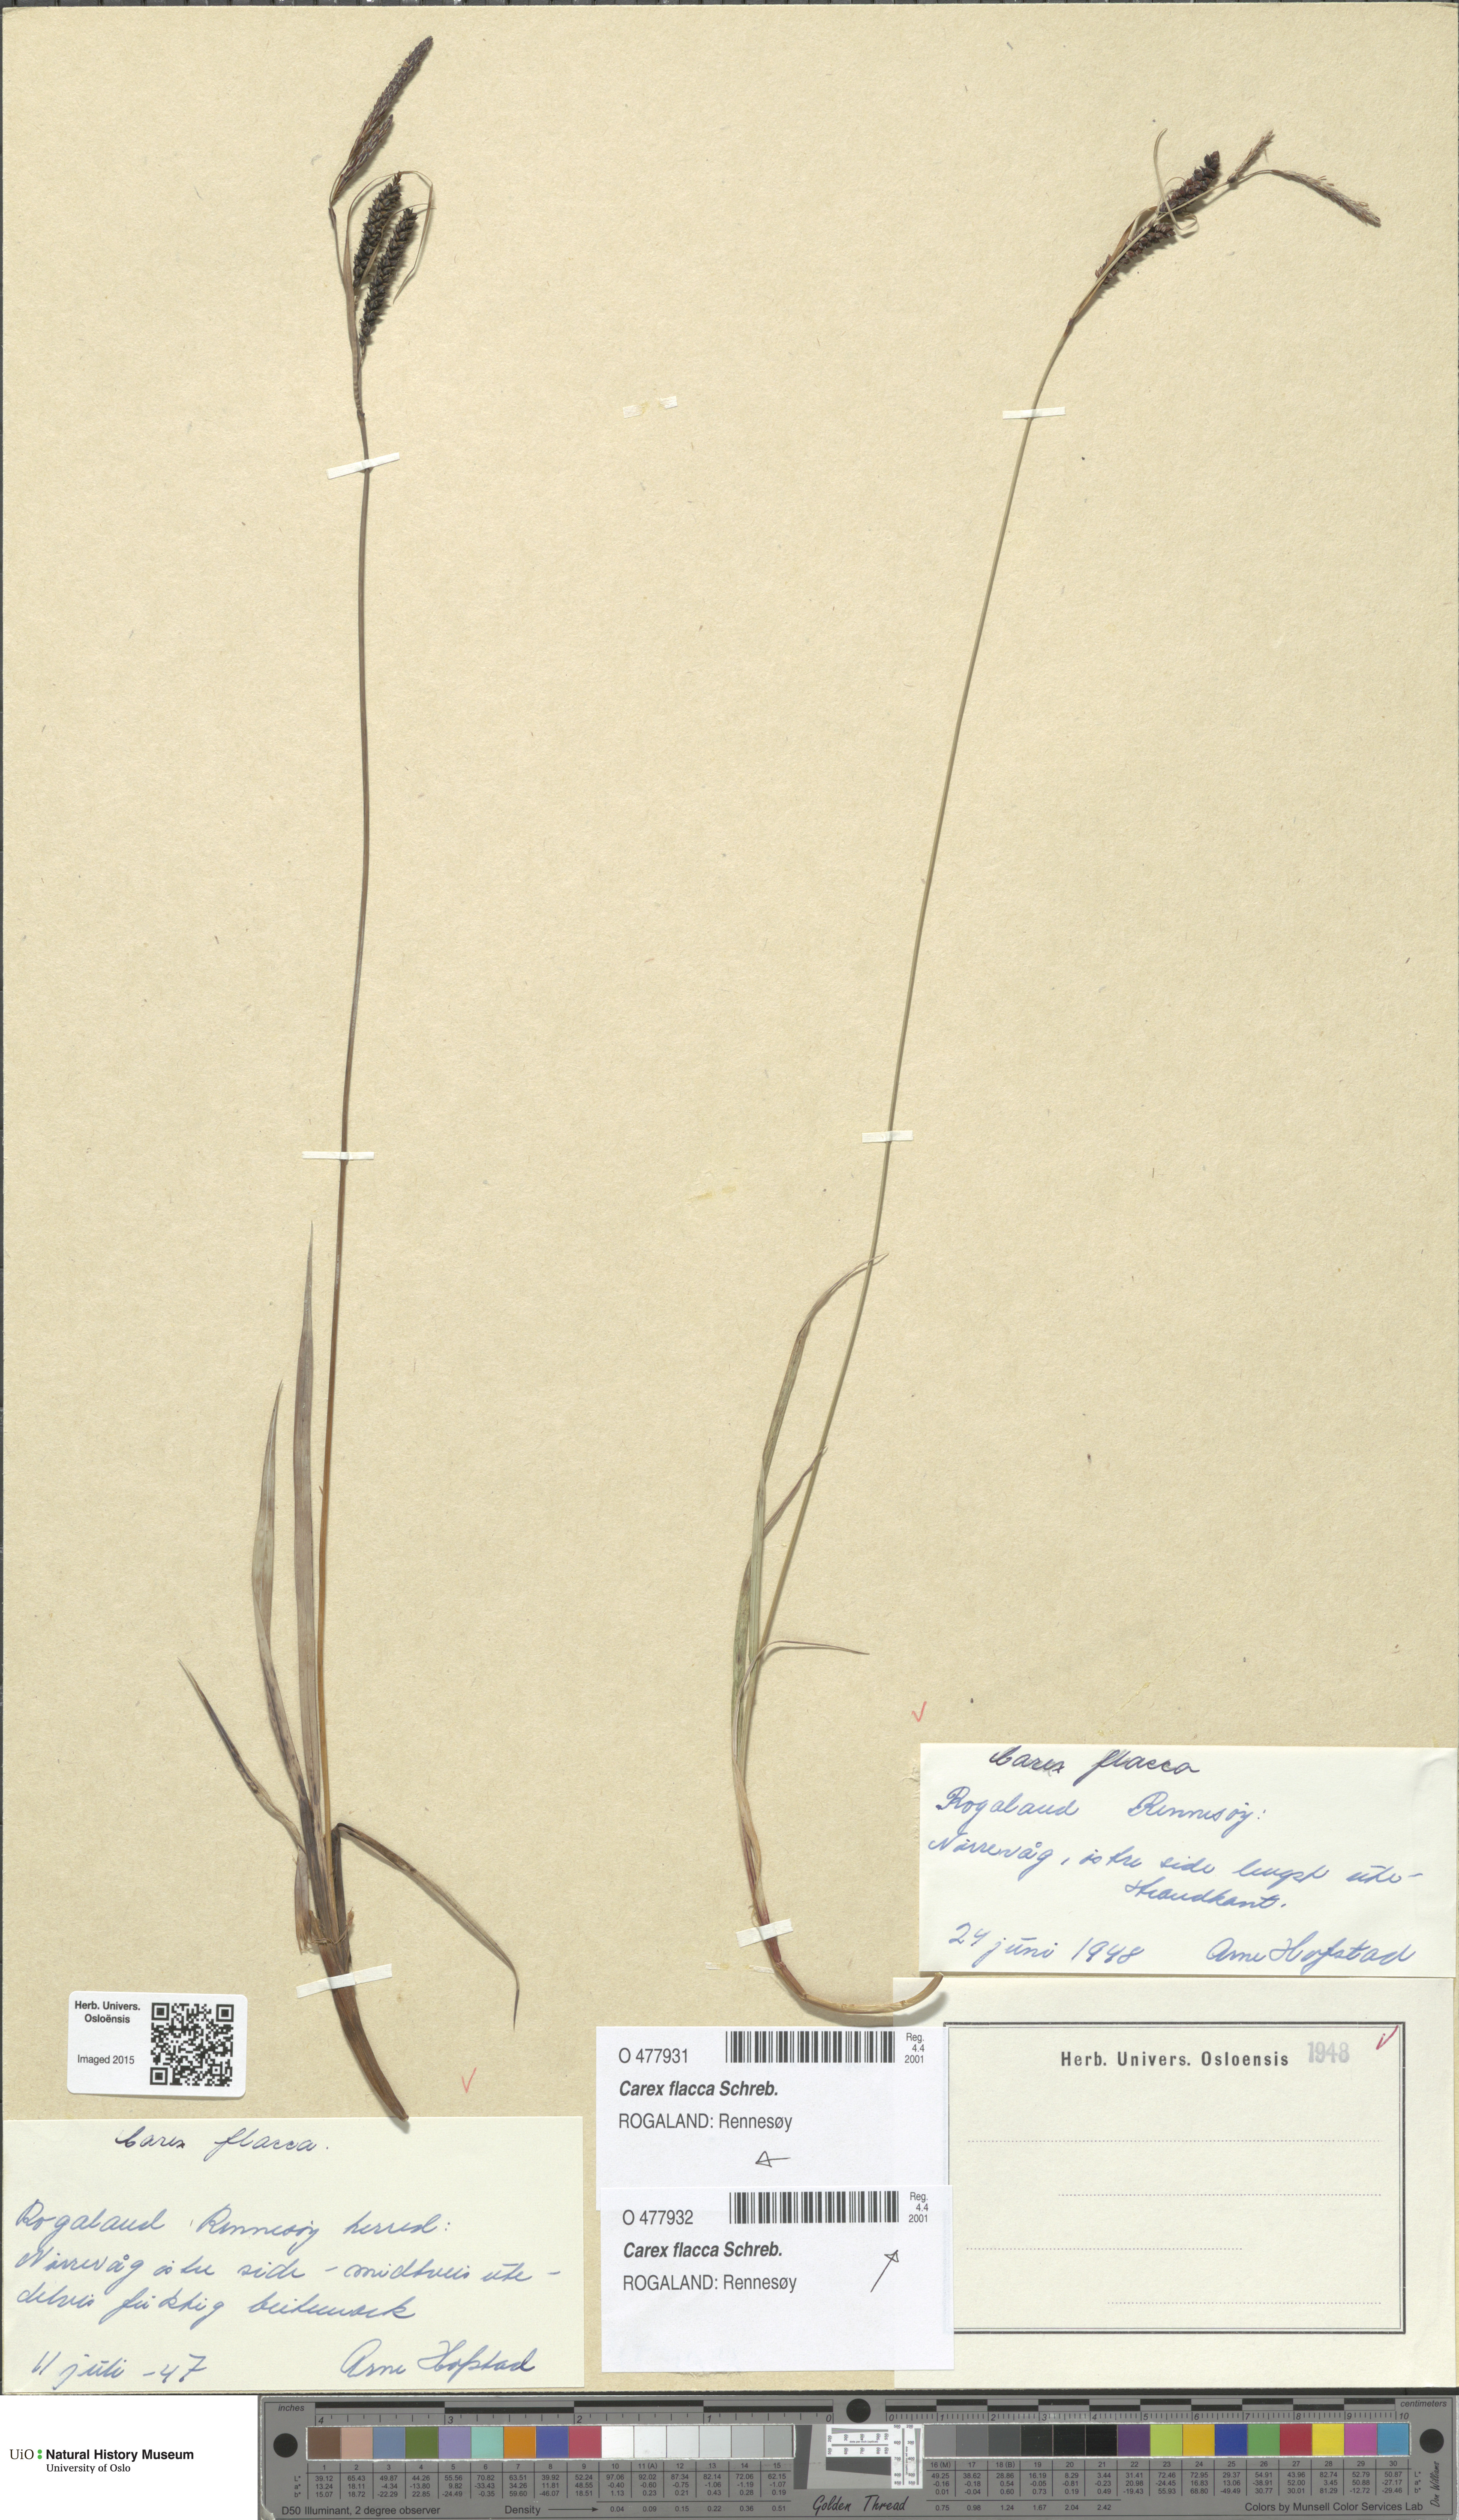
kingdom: Plantae
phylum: Tracheophyta
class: Liliopsida
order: Poales
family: Cyperaceae
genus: Carex
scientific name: Carex flacca
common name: Glaucous sedge
